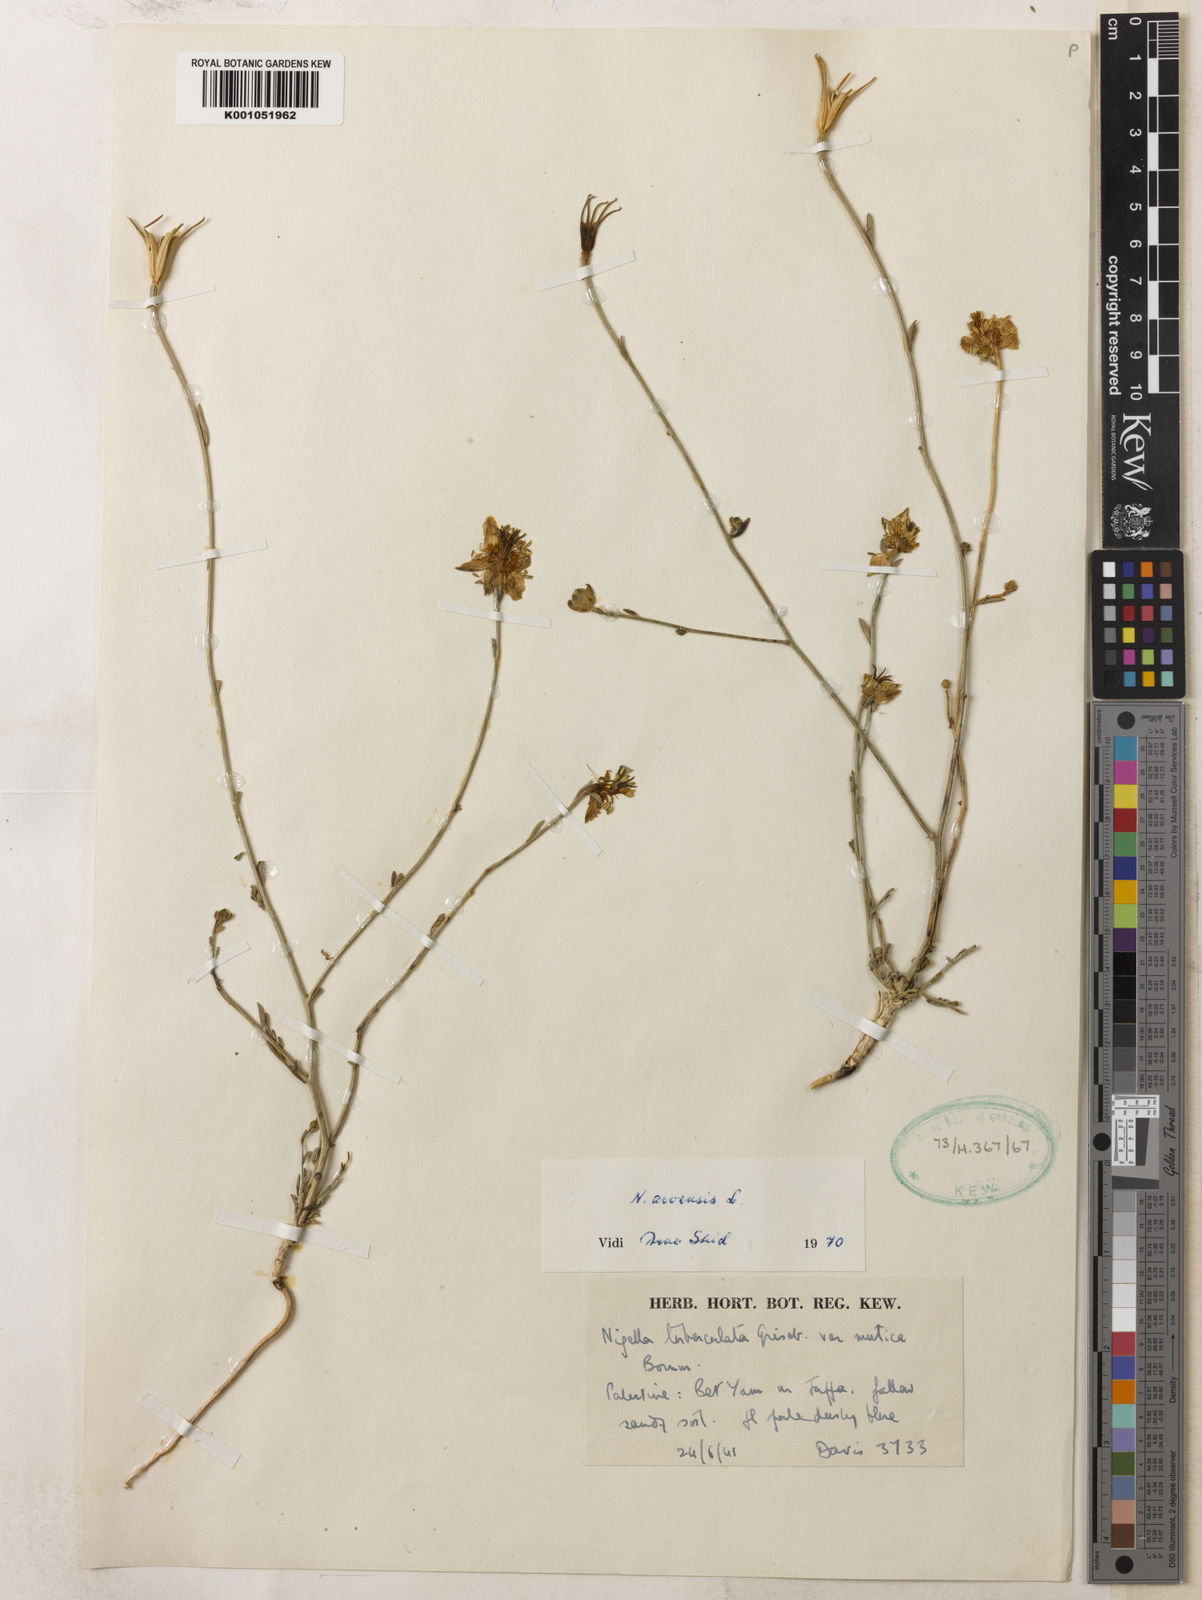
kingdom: Plantae
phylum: Tracheophyta
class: Magnoliopsida
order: Ranunculales
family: Ranunculaceae
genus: Nigella
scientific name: Nigella arvensis
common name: Wild fennel-flower
